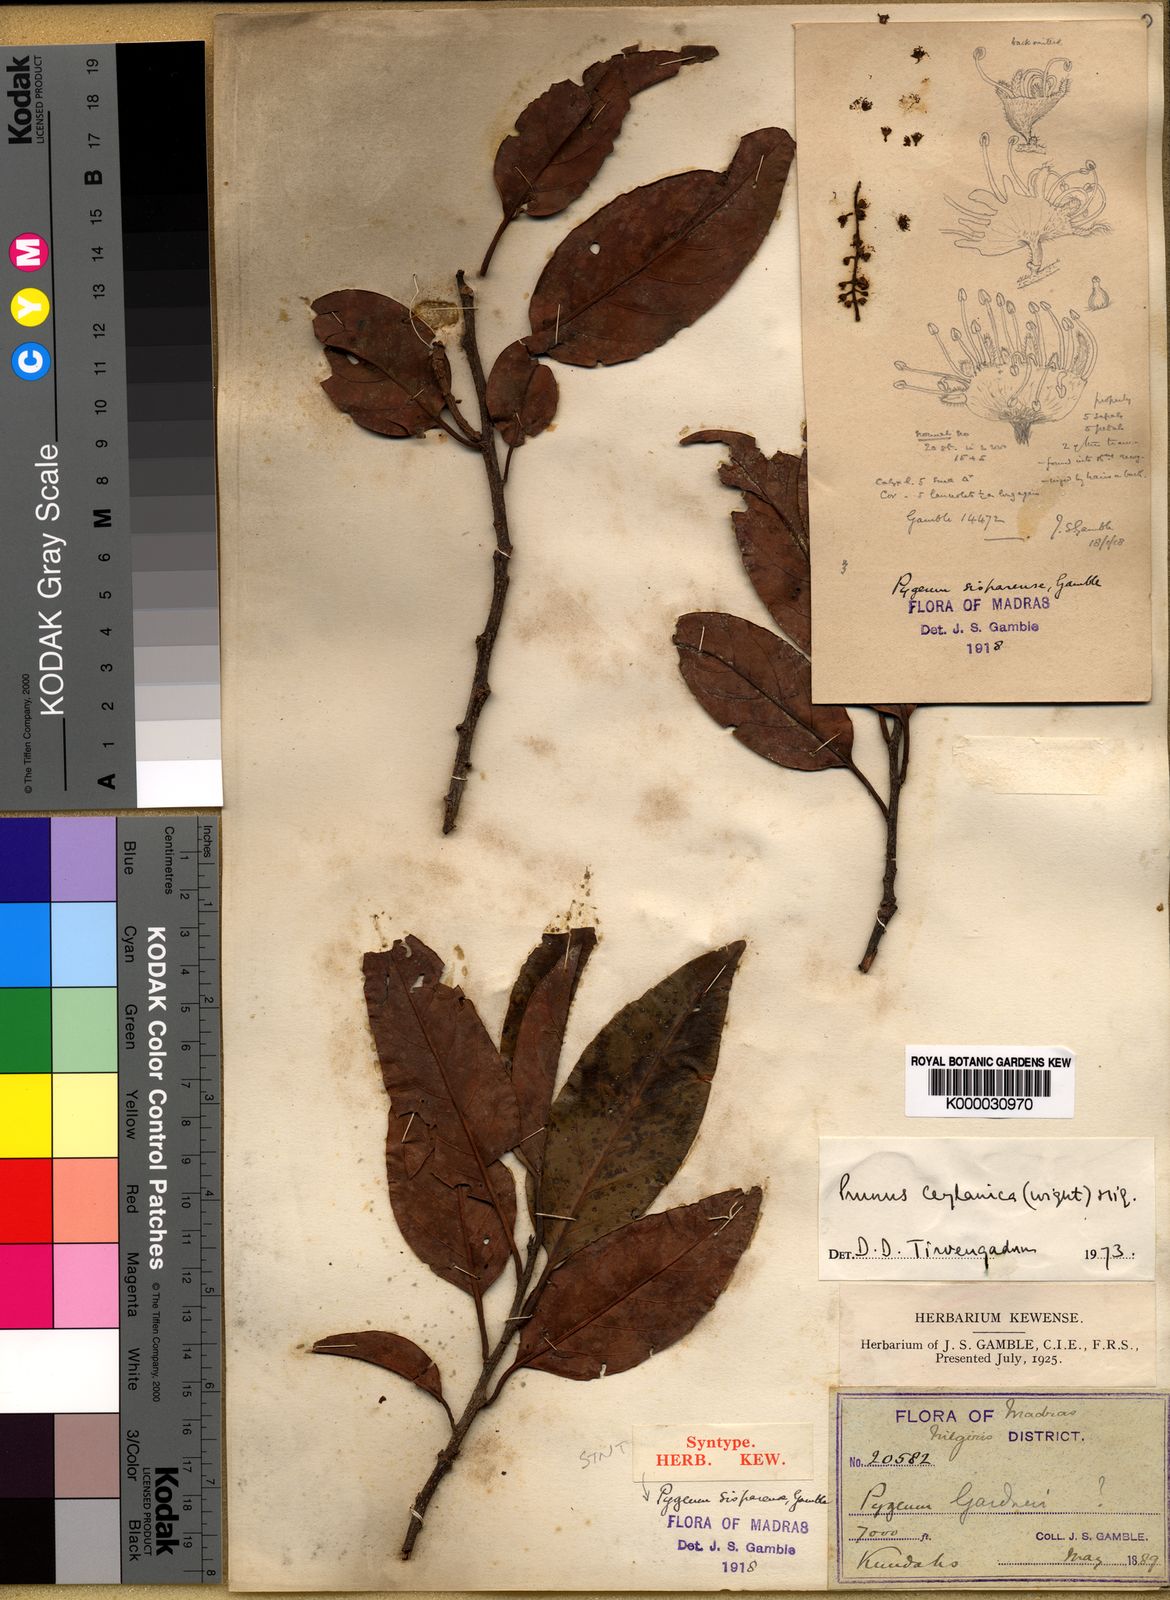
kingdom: Plantae
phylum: Tracheophyta
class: Magnoliopsida
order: Rosales
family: Rosaceae
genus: Prunus
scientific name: Prunus ceylanica
